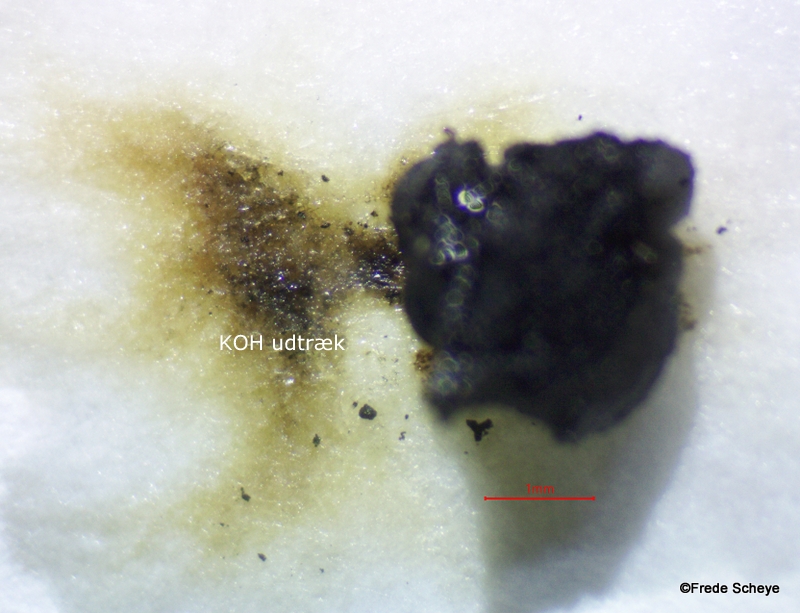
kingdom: Fungi
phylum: Ascomycota
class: Sordariomycetes
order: Xylariales
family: Hypoxylaceae
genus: Jackrogersella
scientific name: Jackrogersella cohaerens
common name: sammenflydende kulbær
